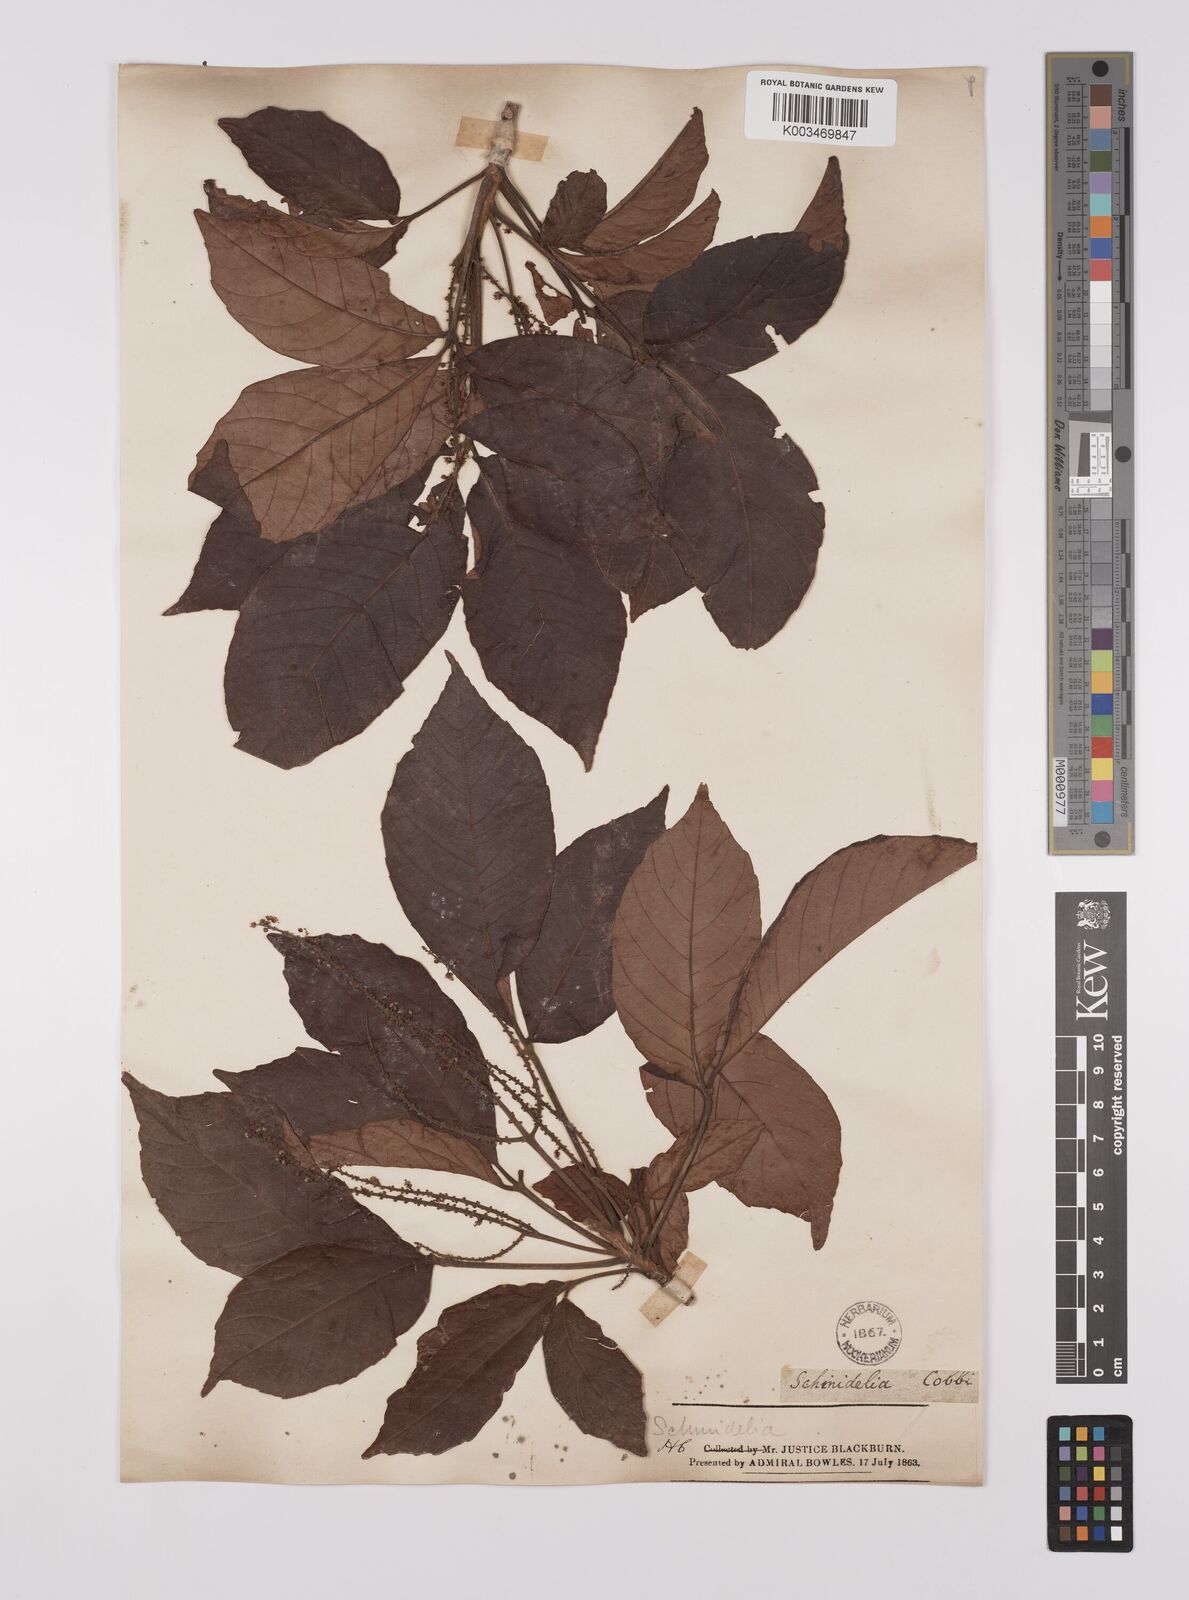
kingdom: Plantae
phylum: Tracheophyta
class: Magnoliopsida
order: Sapindales
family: Sapindaceae
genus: Allophylus
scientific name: Allophylus
